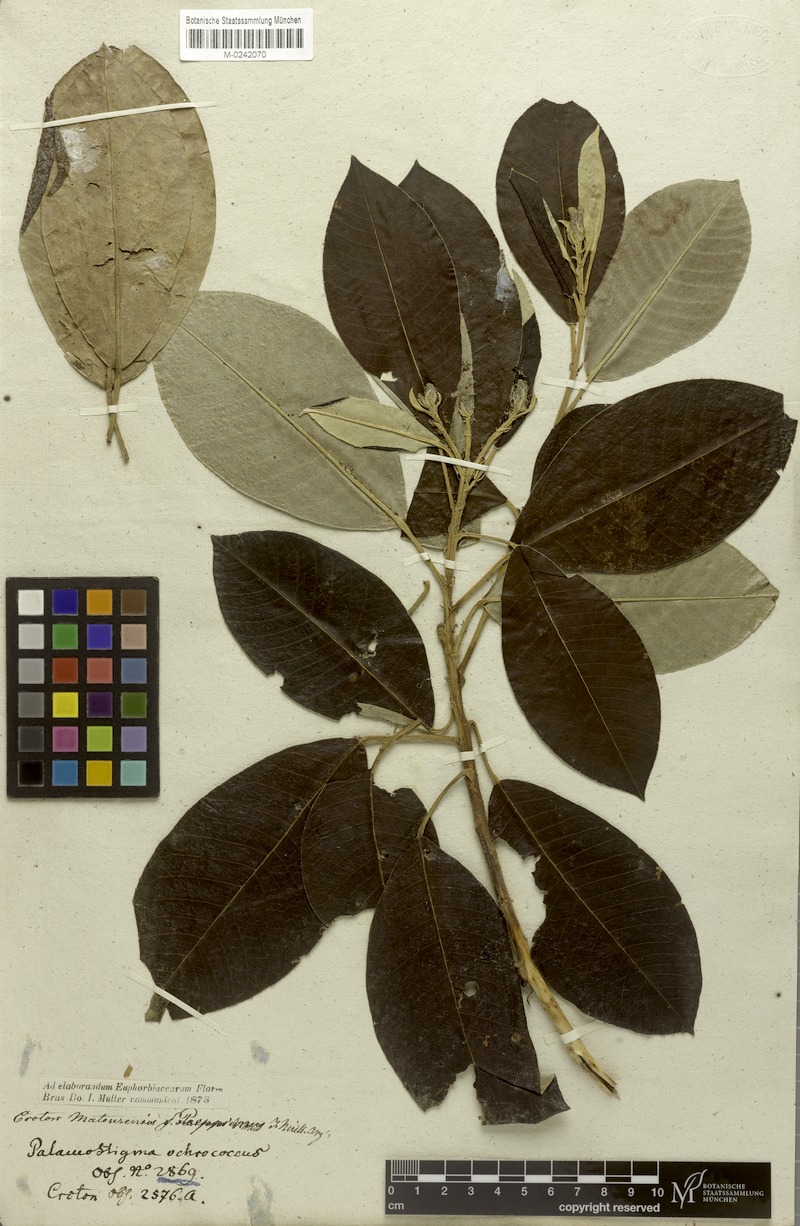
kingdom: Plantae
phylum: Tracheophyta
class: Magnoliopsida
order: Malpighiales
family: Euphorbiaceae
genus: Croton
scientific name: Croton matourensis
